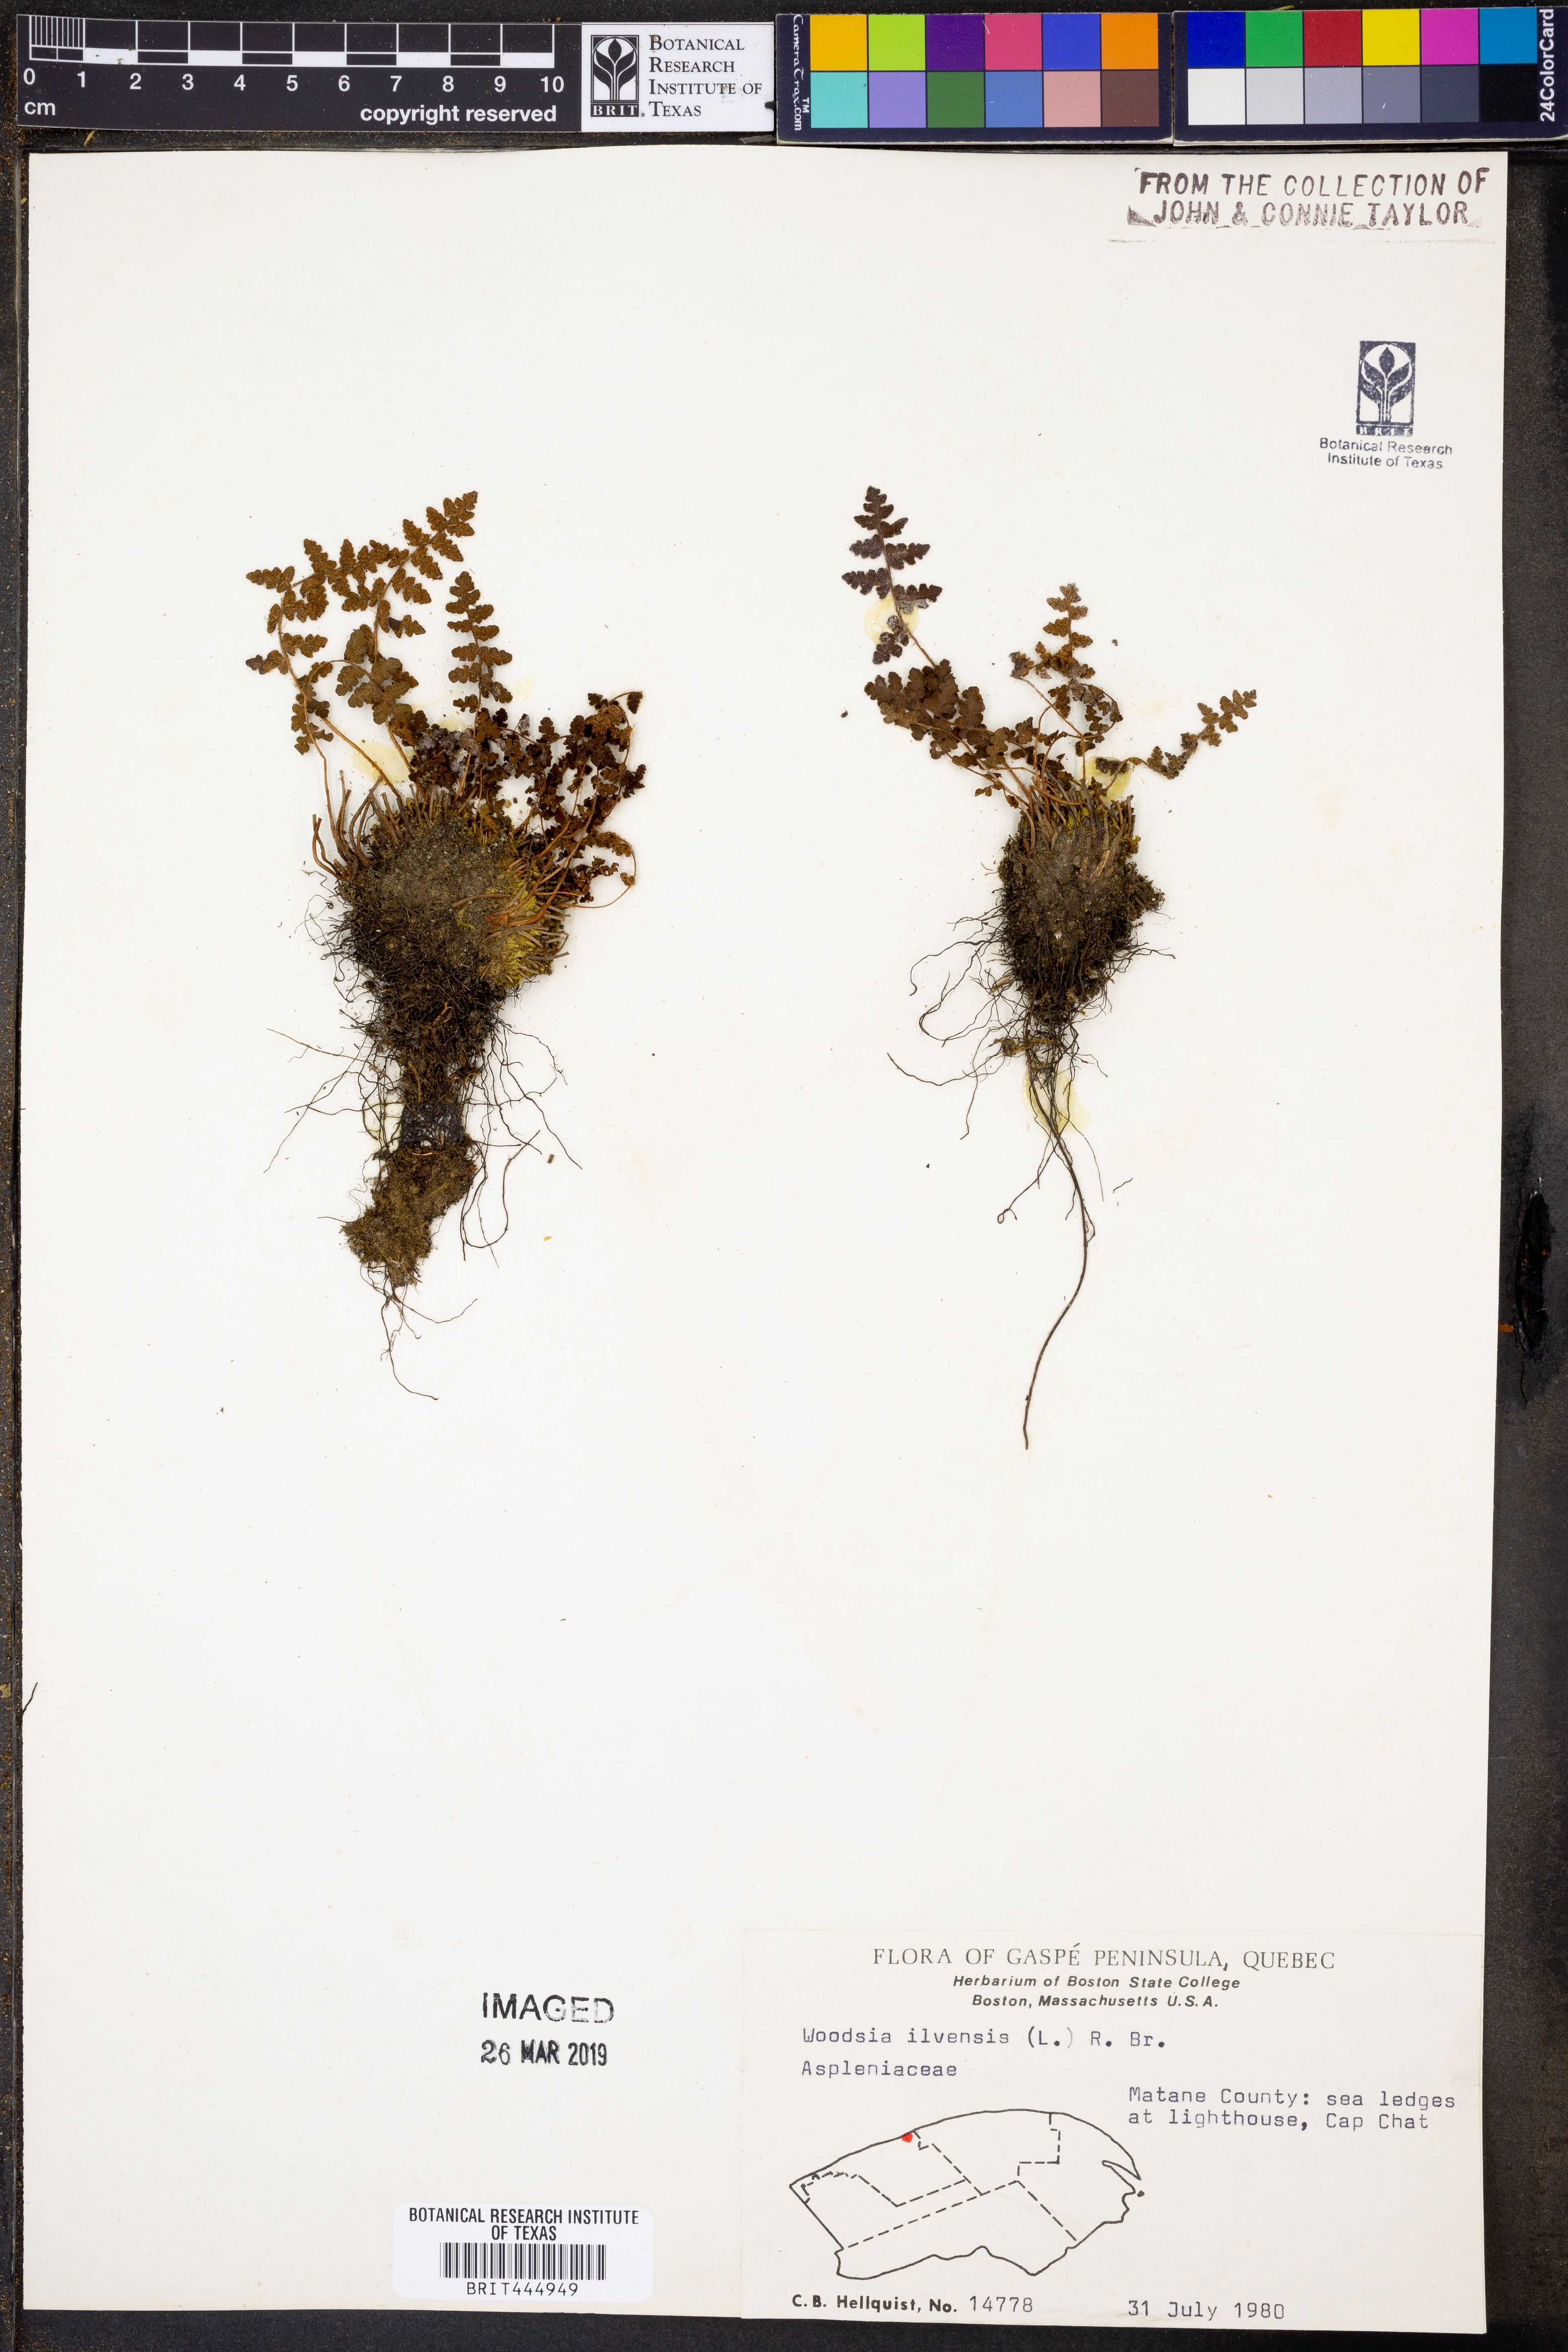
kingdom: Plantae
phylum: Tracheophyta
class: Polypodiopsida
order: Polypodiales
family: Woodsiaceae
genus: Woodsia
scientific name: Woodsia ilvensis
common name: Fragrant woodsia
